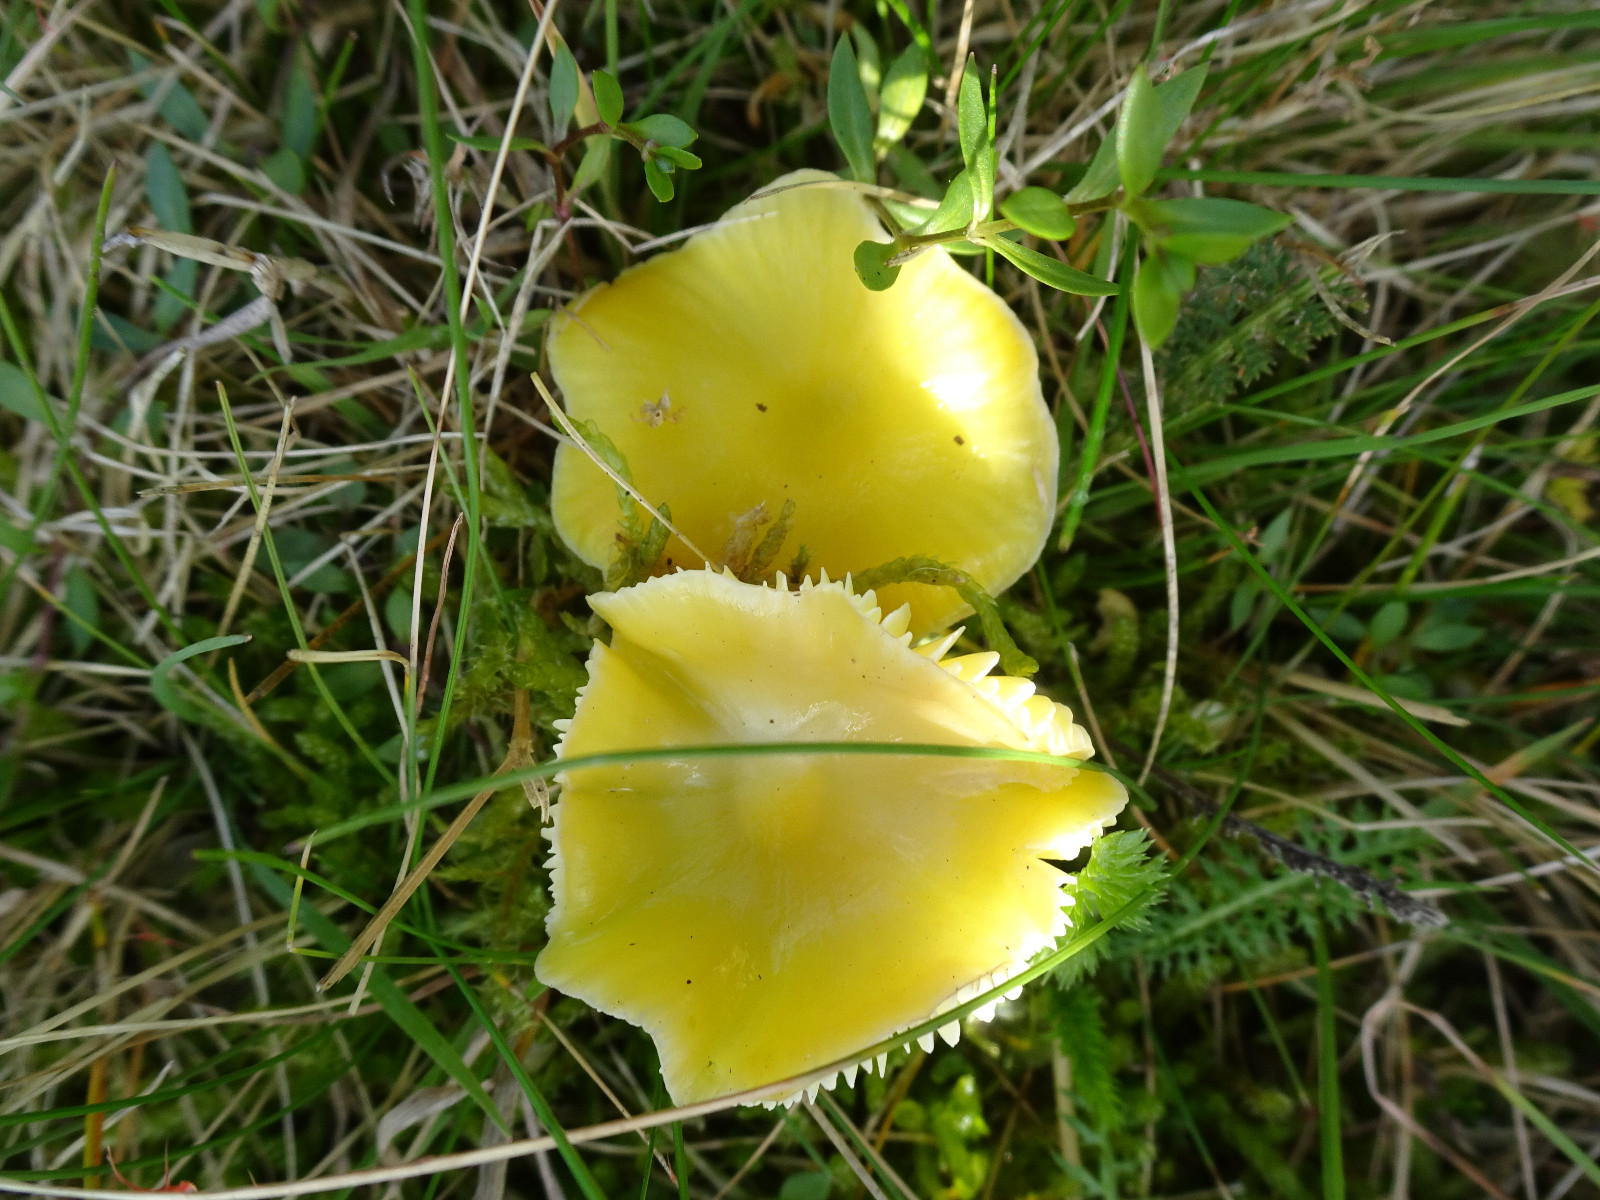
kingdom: Fungi
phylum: Basidiomycota
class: Agaricomycetes
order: Agaricales
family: Hygrophoraceae
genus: Hygrocybe
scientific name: Hygrocybe chlorophana
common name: gul vokshat
